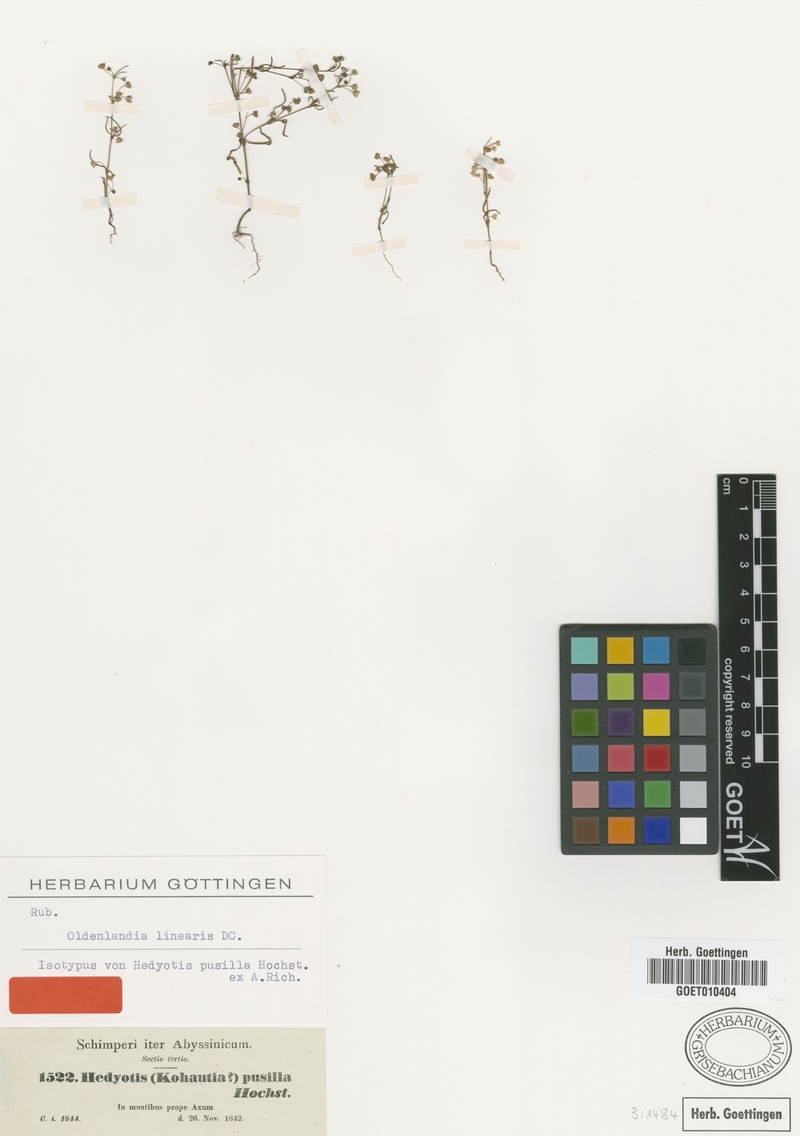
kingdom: Plantae
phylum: Tracheophyta
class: Magnoliopsida
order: Gentianales
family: Rubiaceae
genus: Oldenlandia
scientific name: Oldenlandia corymbosa
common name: Flat-top mille graines
